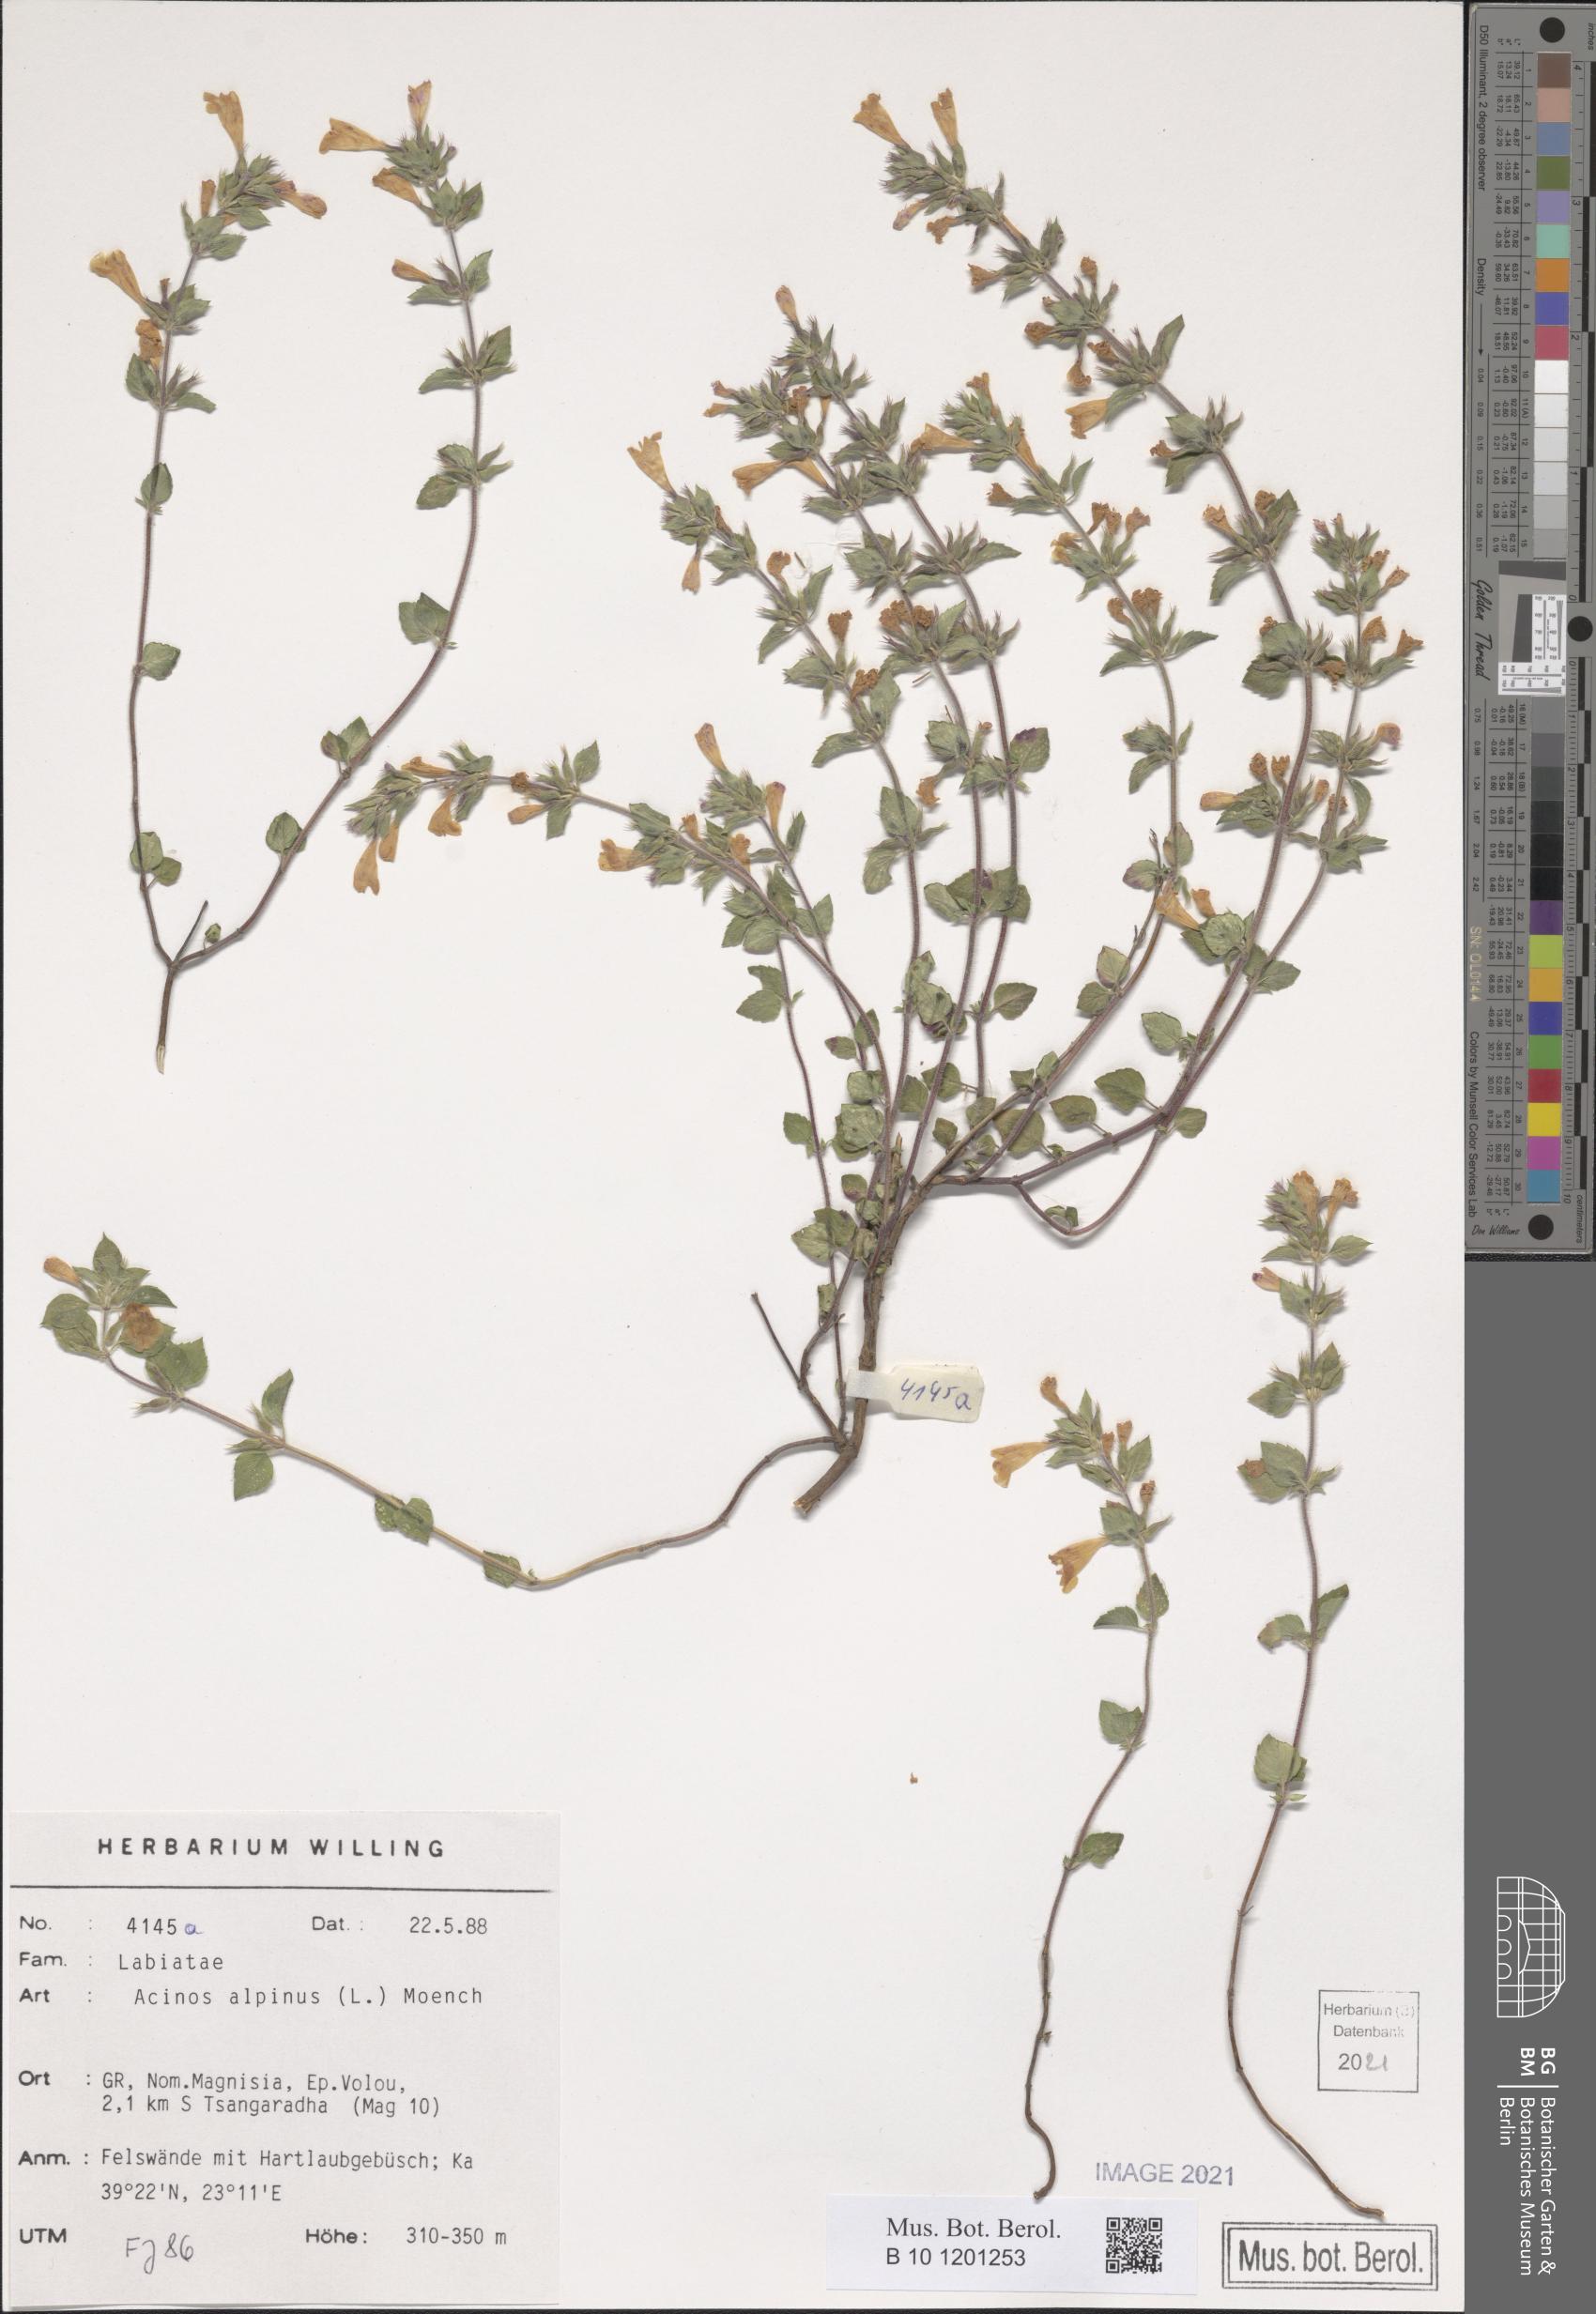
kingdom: Plantae
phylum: Tracheophyta
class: Magnoliopsida
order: Lamiales
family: Lamiaceae
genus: Clinopodium
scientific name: Clinopodium alpinum
